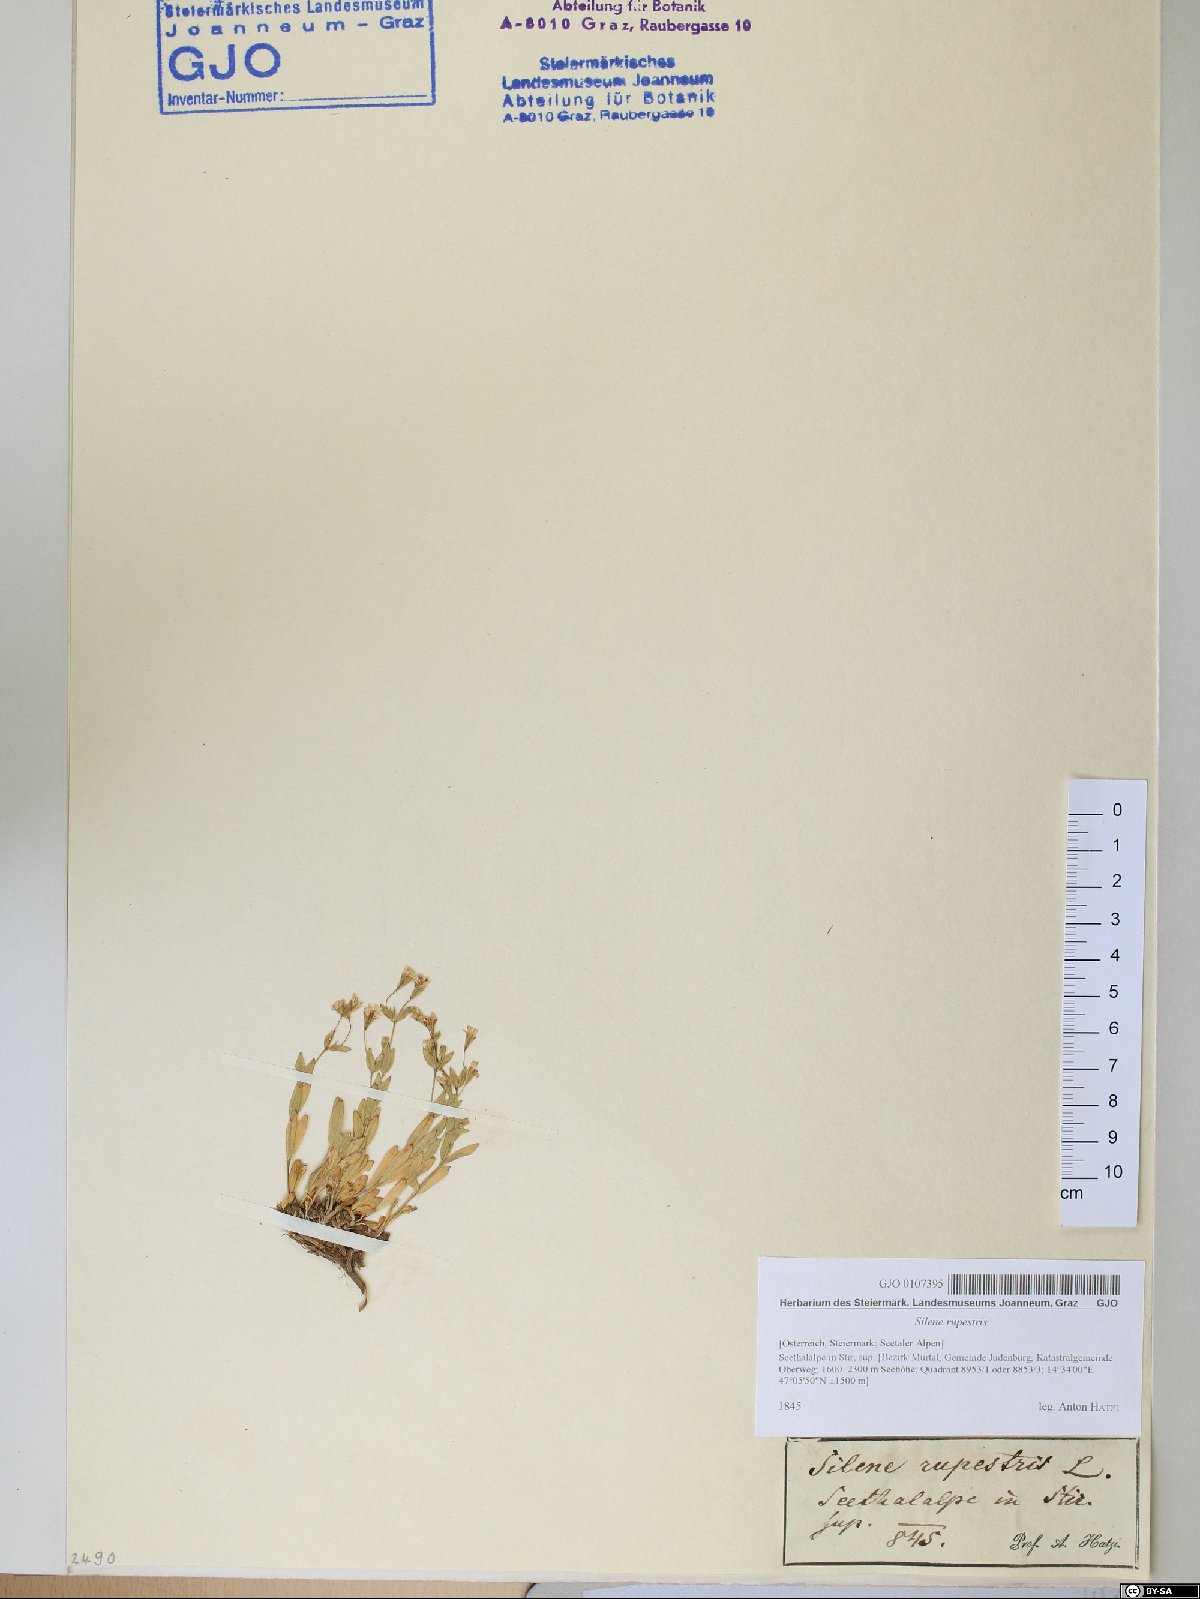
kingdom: Plantae
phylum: Tracheophyta
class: Magnoliopsida
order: Caryophyllales
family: Caryophyllaceae
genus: Atocion
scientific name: Atocion rupestre
